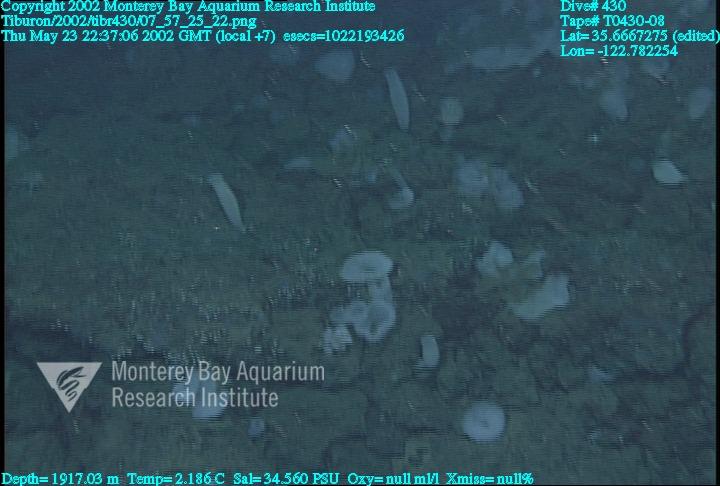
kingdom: Animalia
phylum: Porifera
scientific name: Porifera
